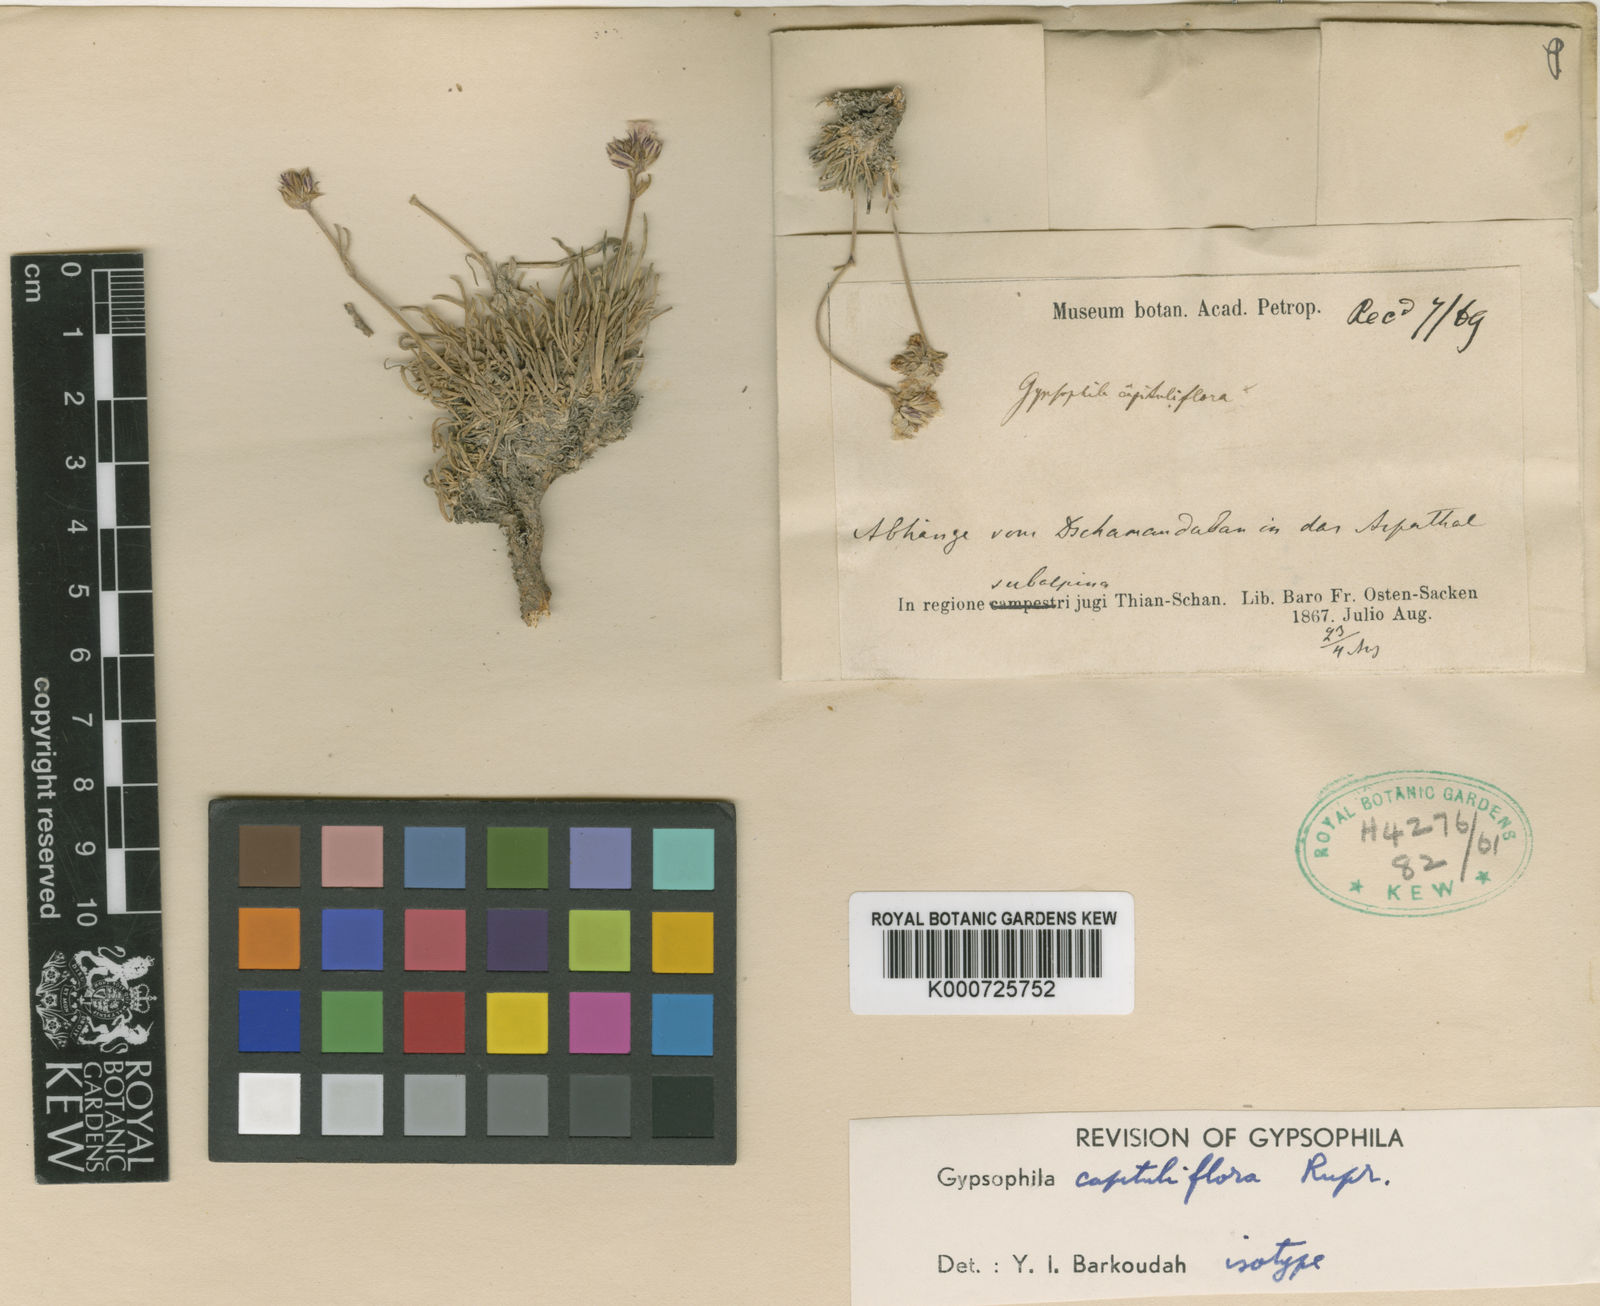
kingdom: Plantae
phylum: Tracheophyta
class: Magnoliopsida
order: Caryophyllales
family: Caryophyllaceae
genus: Gypsophila
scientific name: Gypsophila capituliflora
